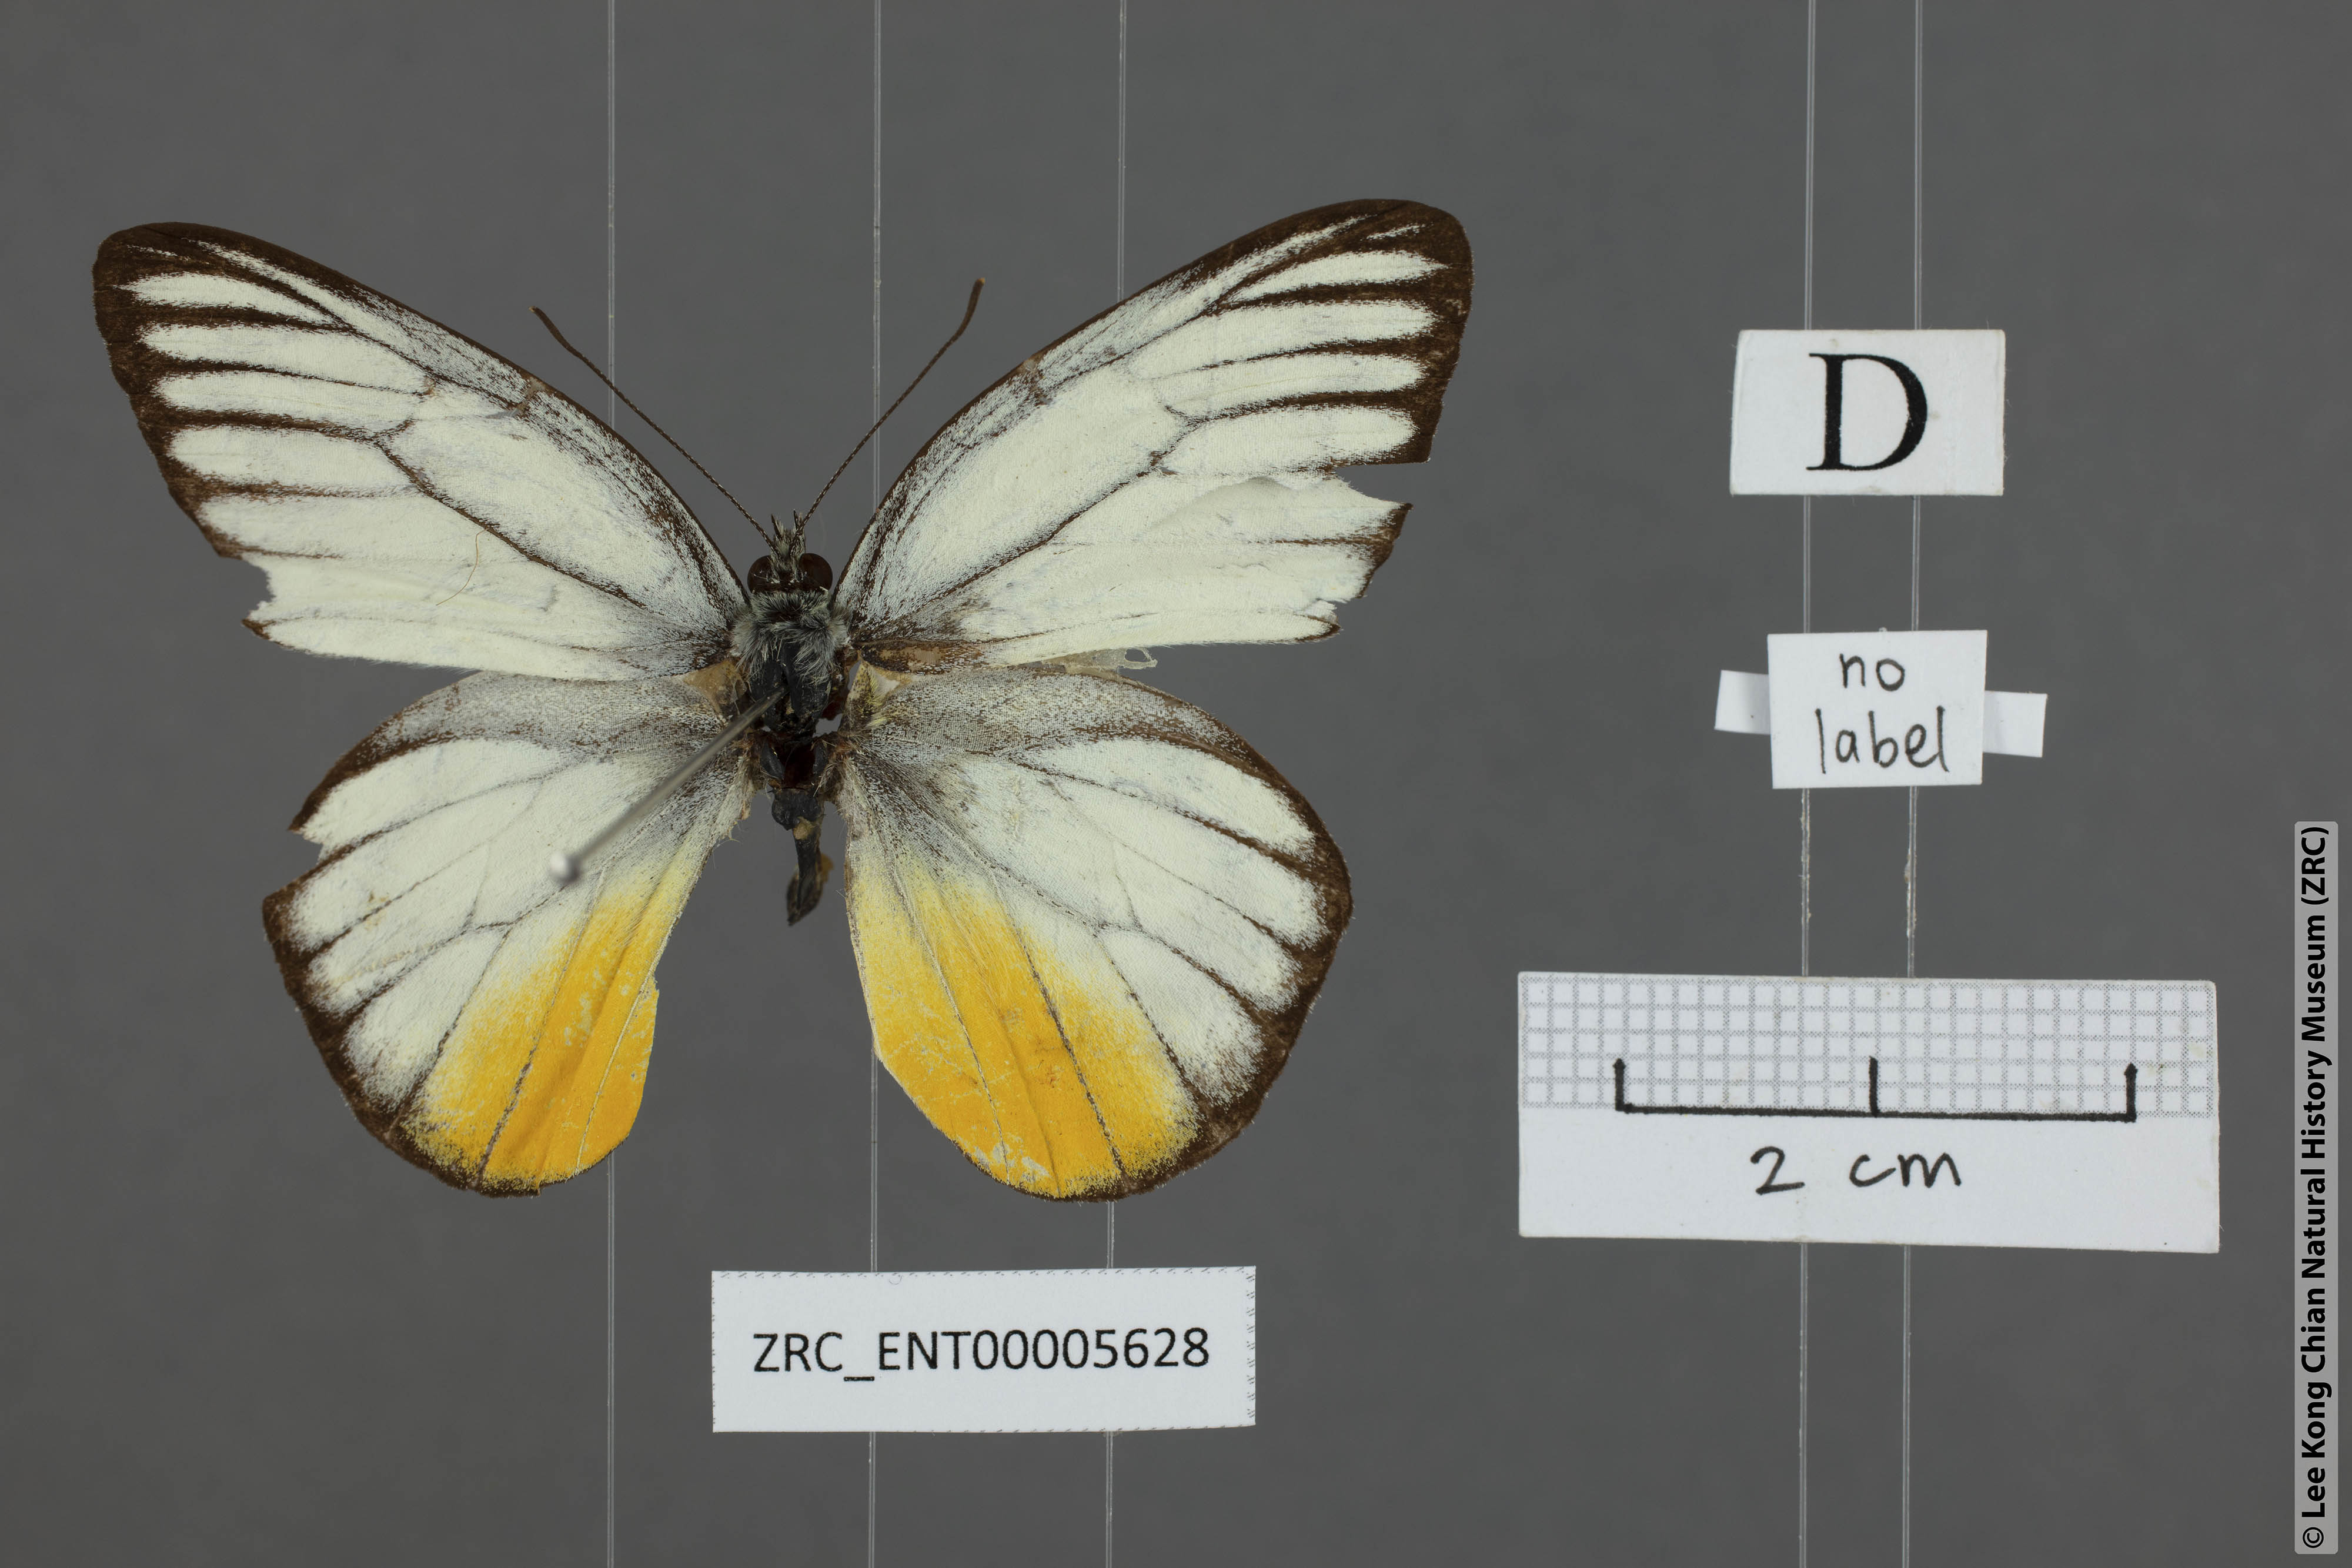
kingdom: Animalia
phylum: Arthropoda
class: Insecta
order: Lepidoptera
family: Pieridae
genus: Cepora
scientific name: Cepora iudith
